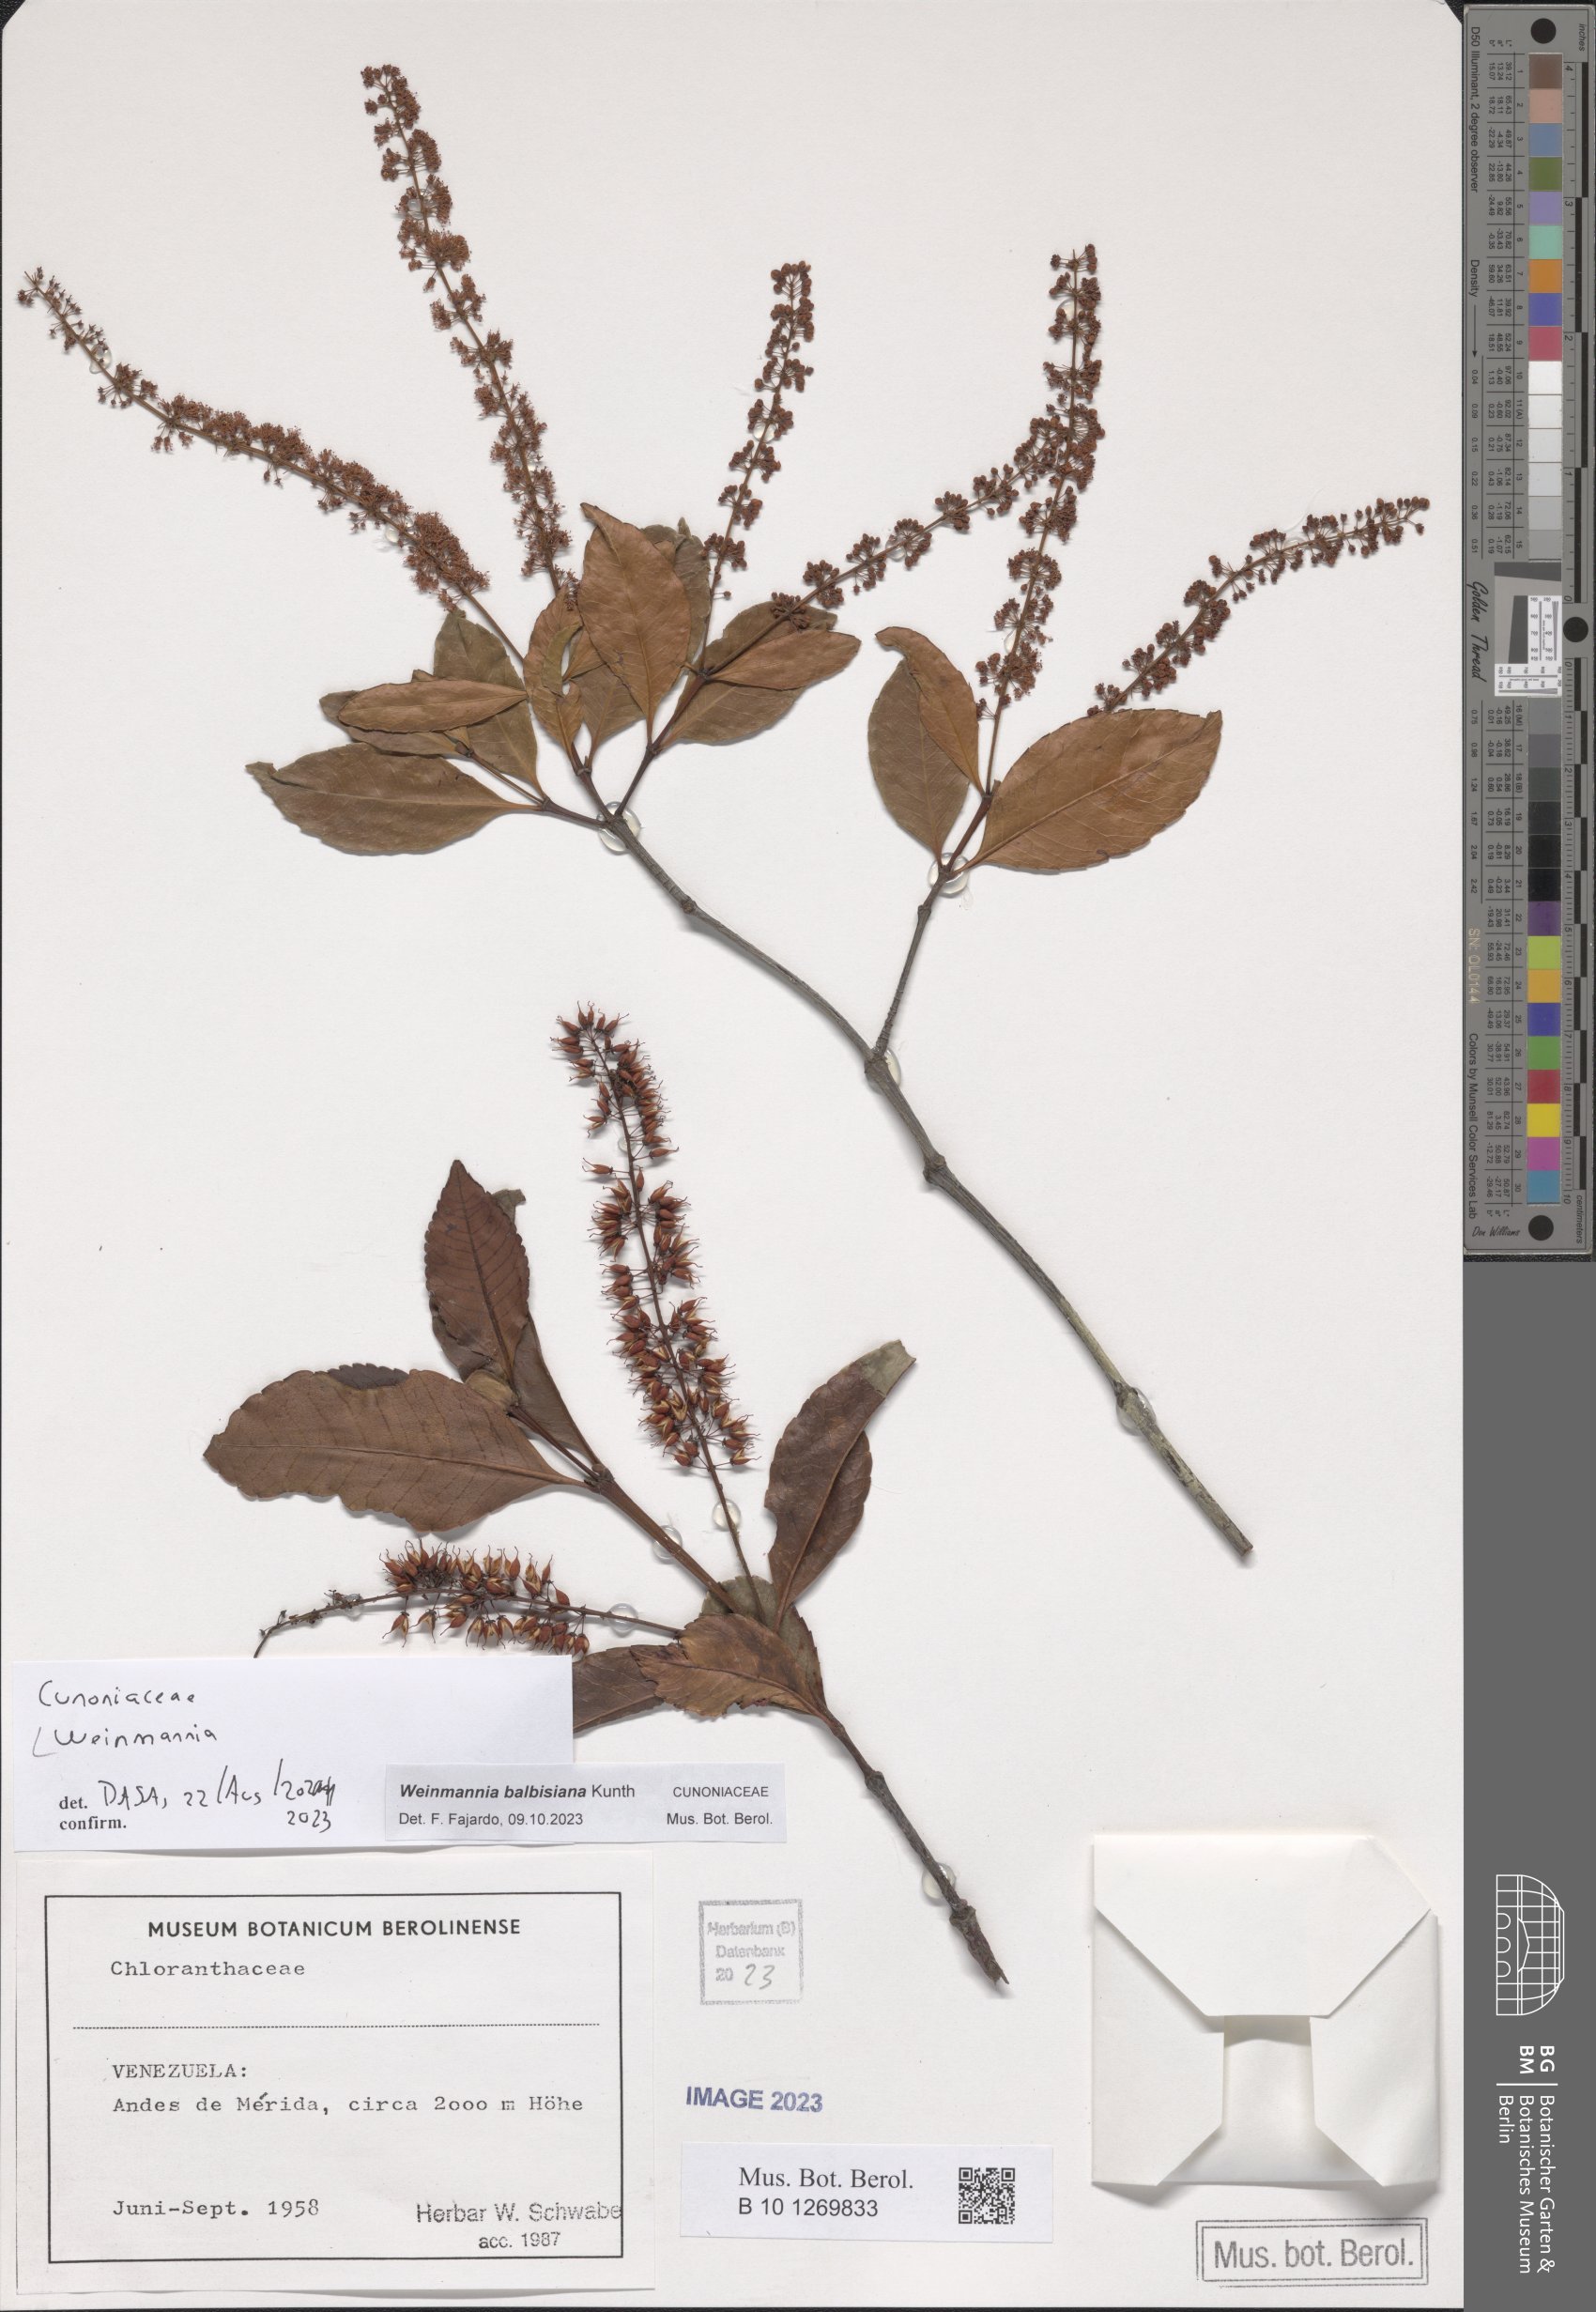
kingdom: Plantae
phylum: Tracheophyta
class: Magnoliopsida
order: Oxalidales
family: Cunoniaceae
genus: Weinmannia
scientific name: Weinmannia balbisana
